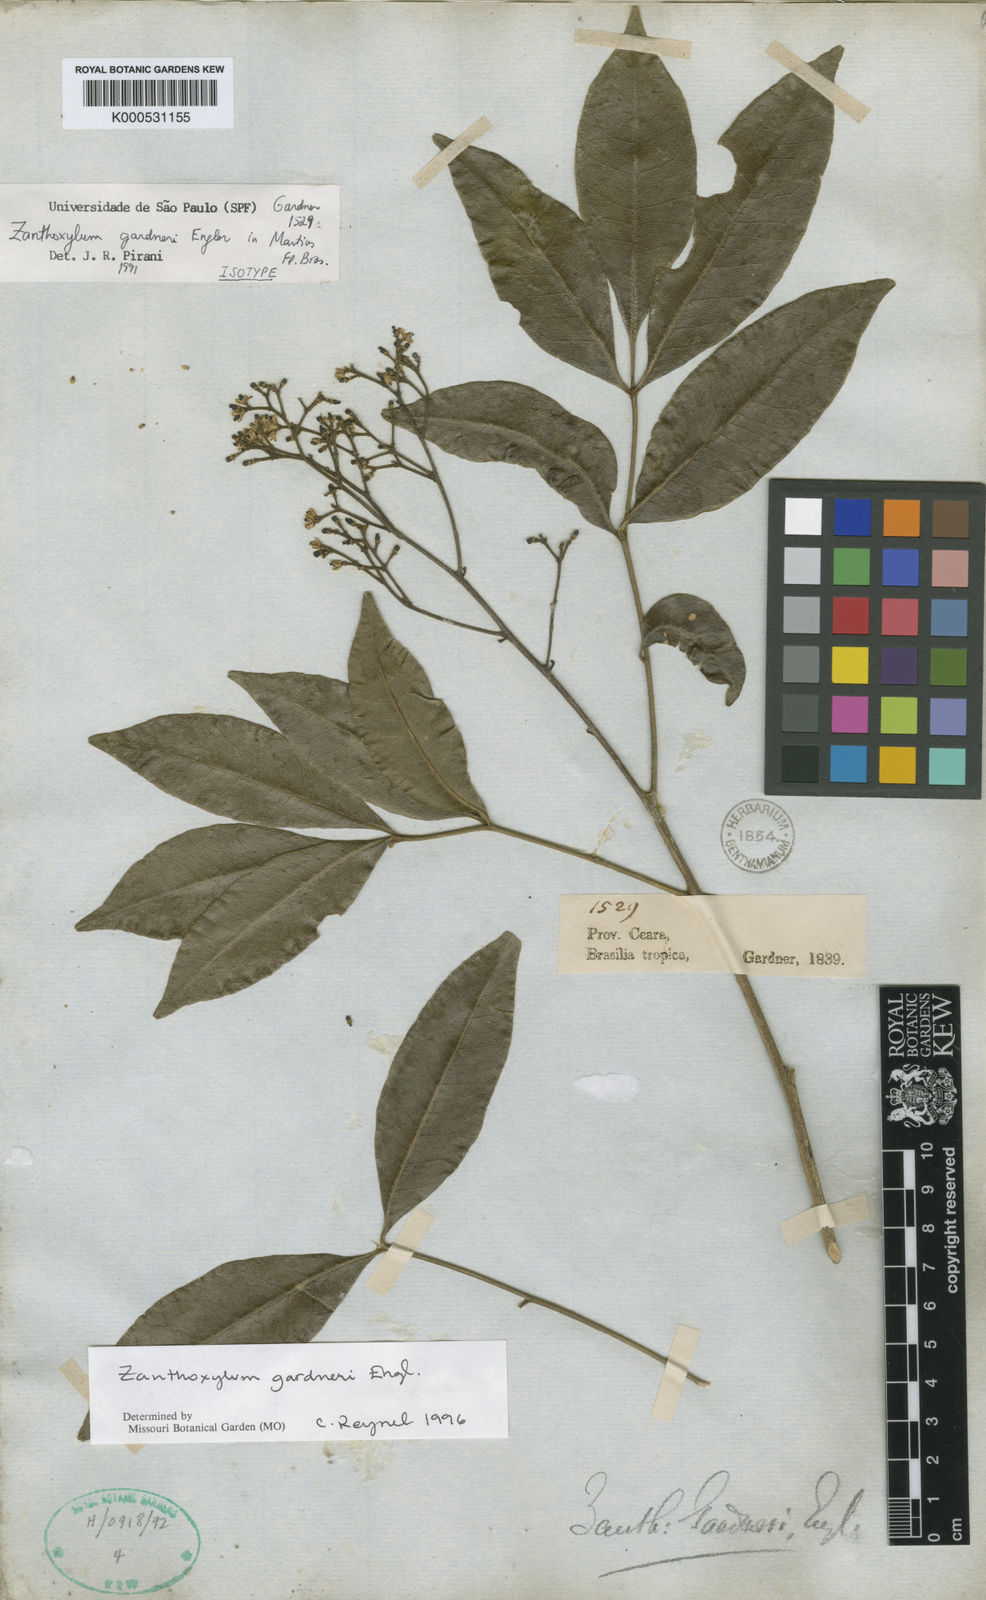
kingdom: Plantae
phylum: Tracheophyta
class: Magnoliopsida
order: Sapindales
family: Rutaceae
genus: Zanthoxylum
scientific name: Zanthoxylum gardneri
